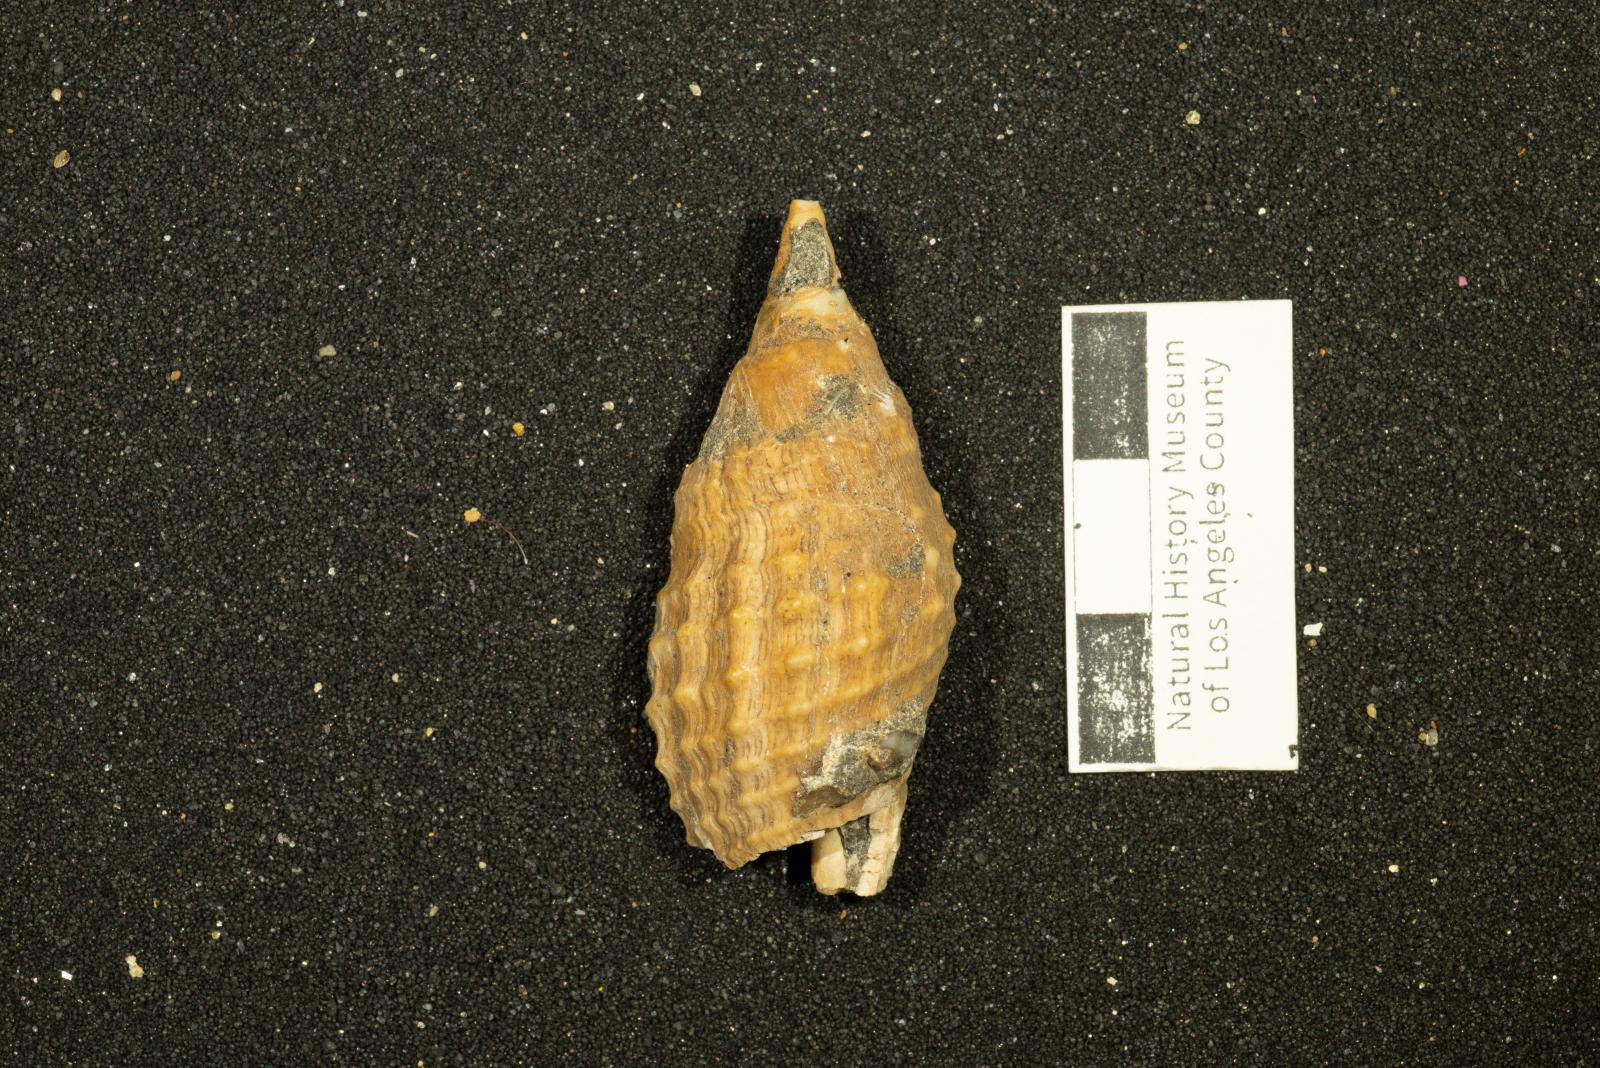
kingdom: Animalia
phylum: Mollusca
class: Gastropoda
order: Neogastropoda
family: Pholidotomidae
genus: Volutoderma
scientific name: Volutoderma querna
